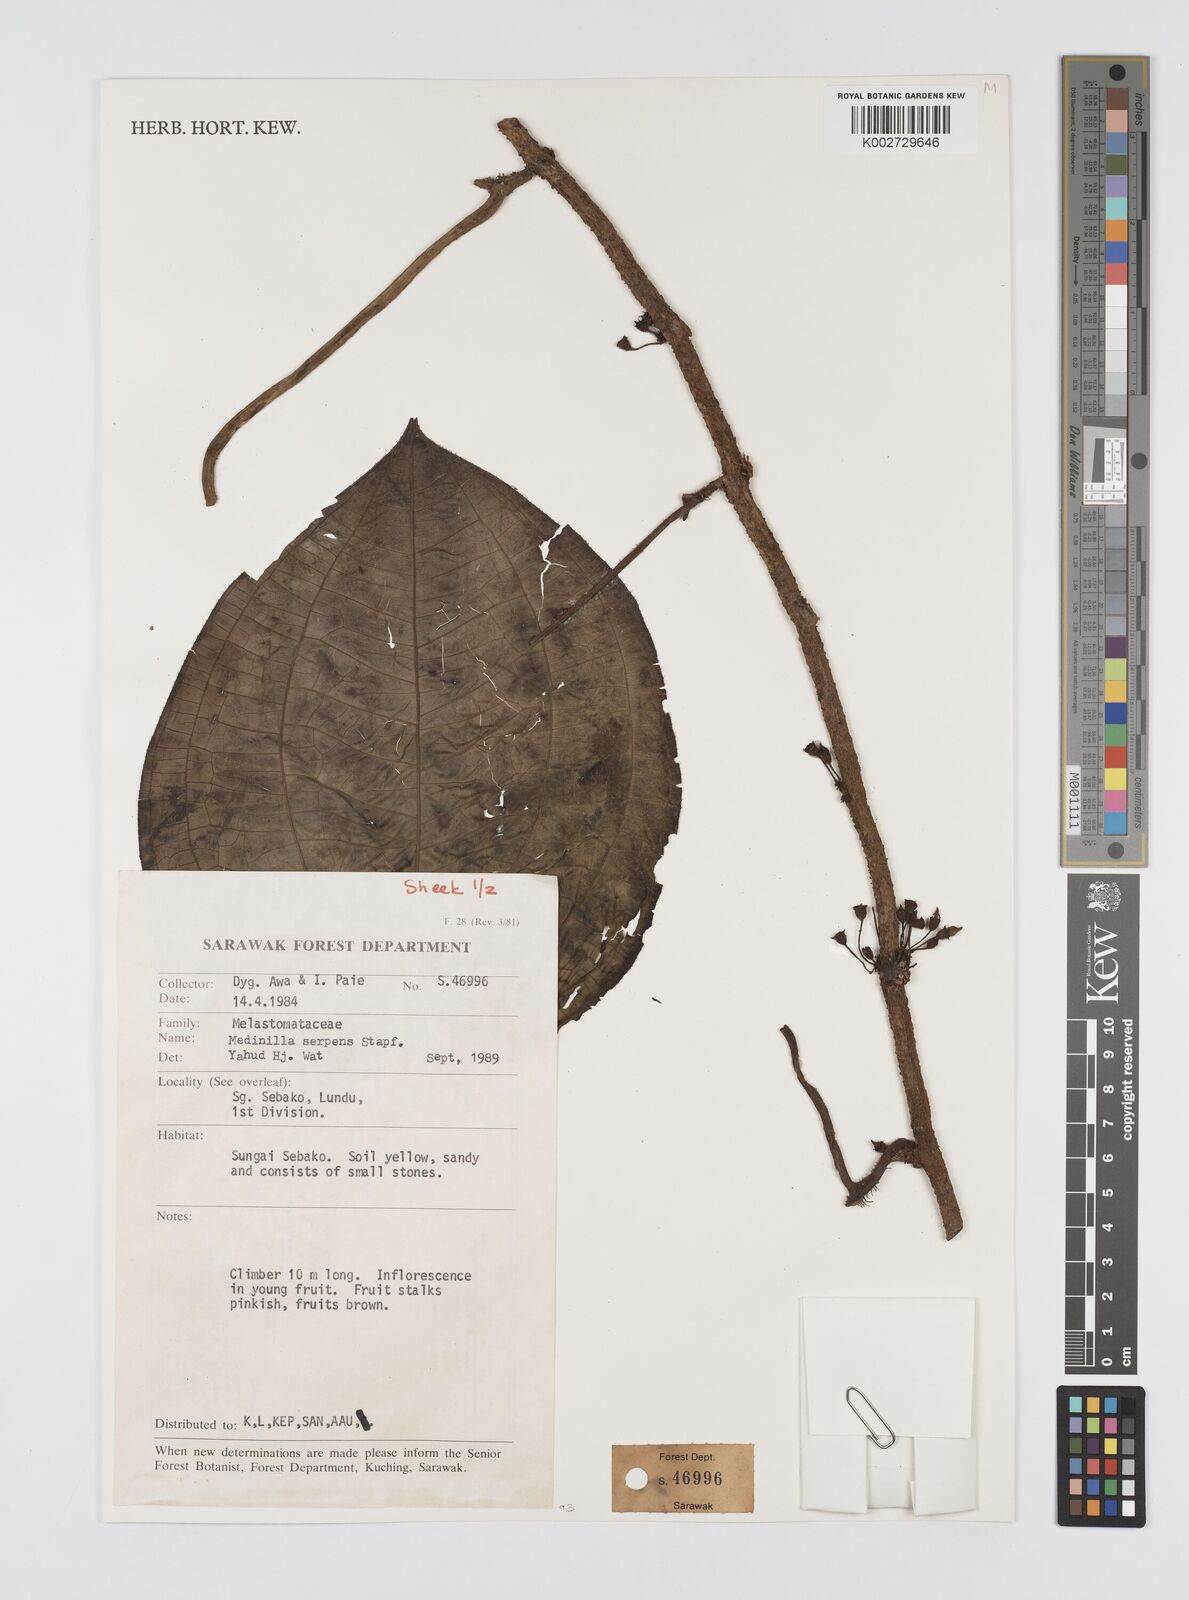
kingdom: Plantae
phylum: Tracheophyta
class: Magnoliopsida
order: Myrtales
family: Melastomataceae
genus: Heteroblemma
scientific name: Heteroblemma serpens
